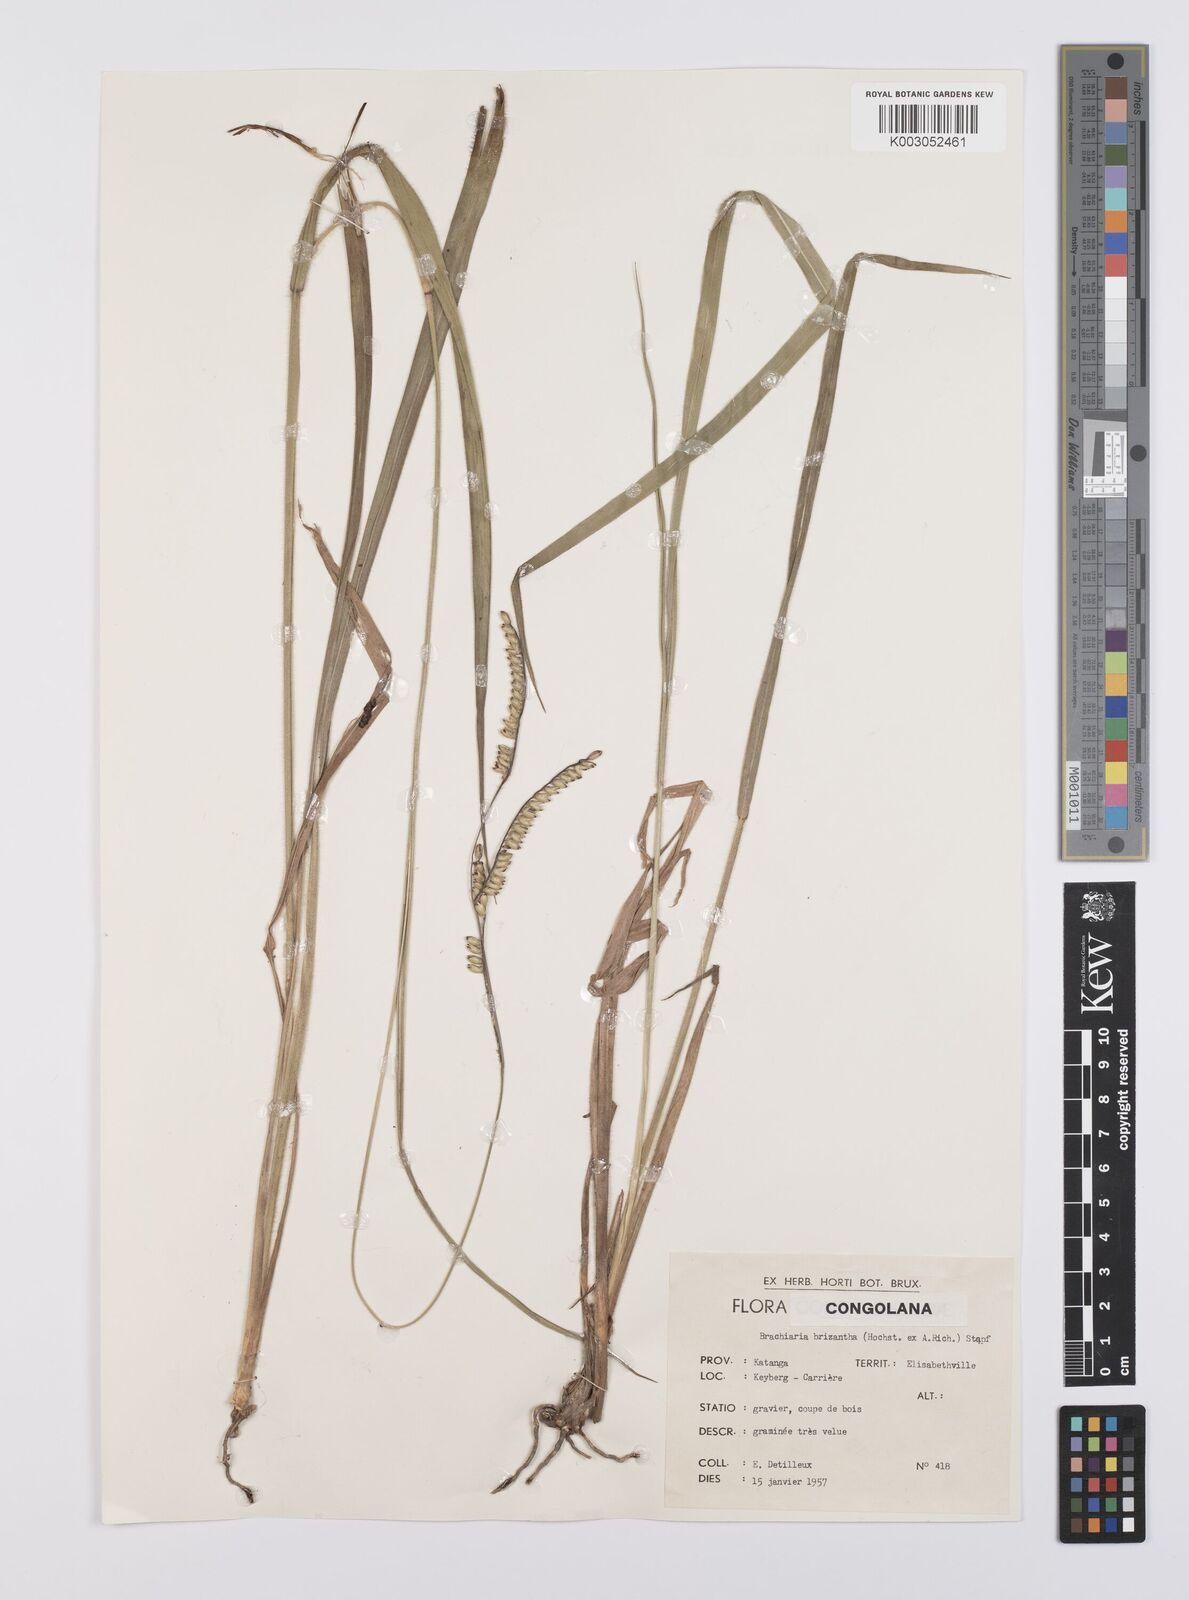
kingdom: Plantae
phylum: Tracheophyta
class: Liliopsida
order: Poales
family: Poaceae
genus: Urochloa
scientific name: Urochloa brizantha
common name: Palisade signalgrass
